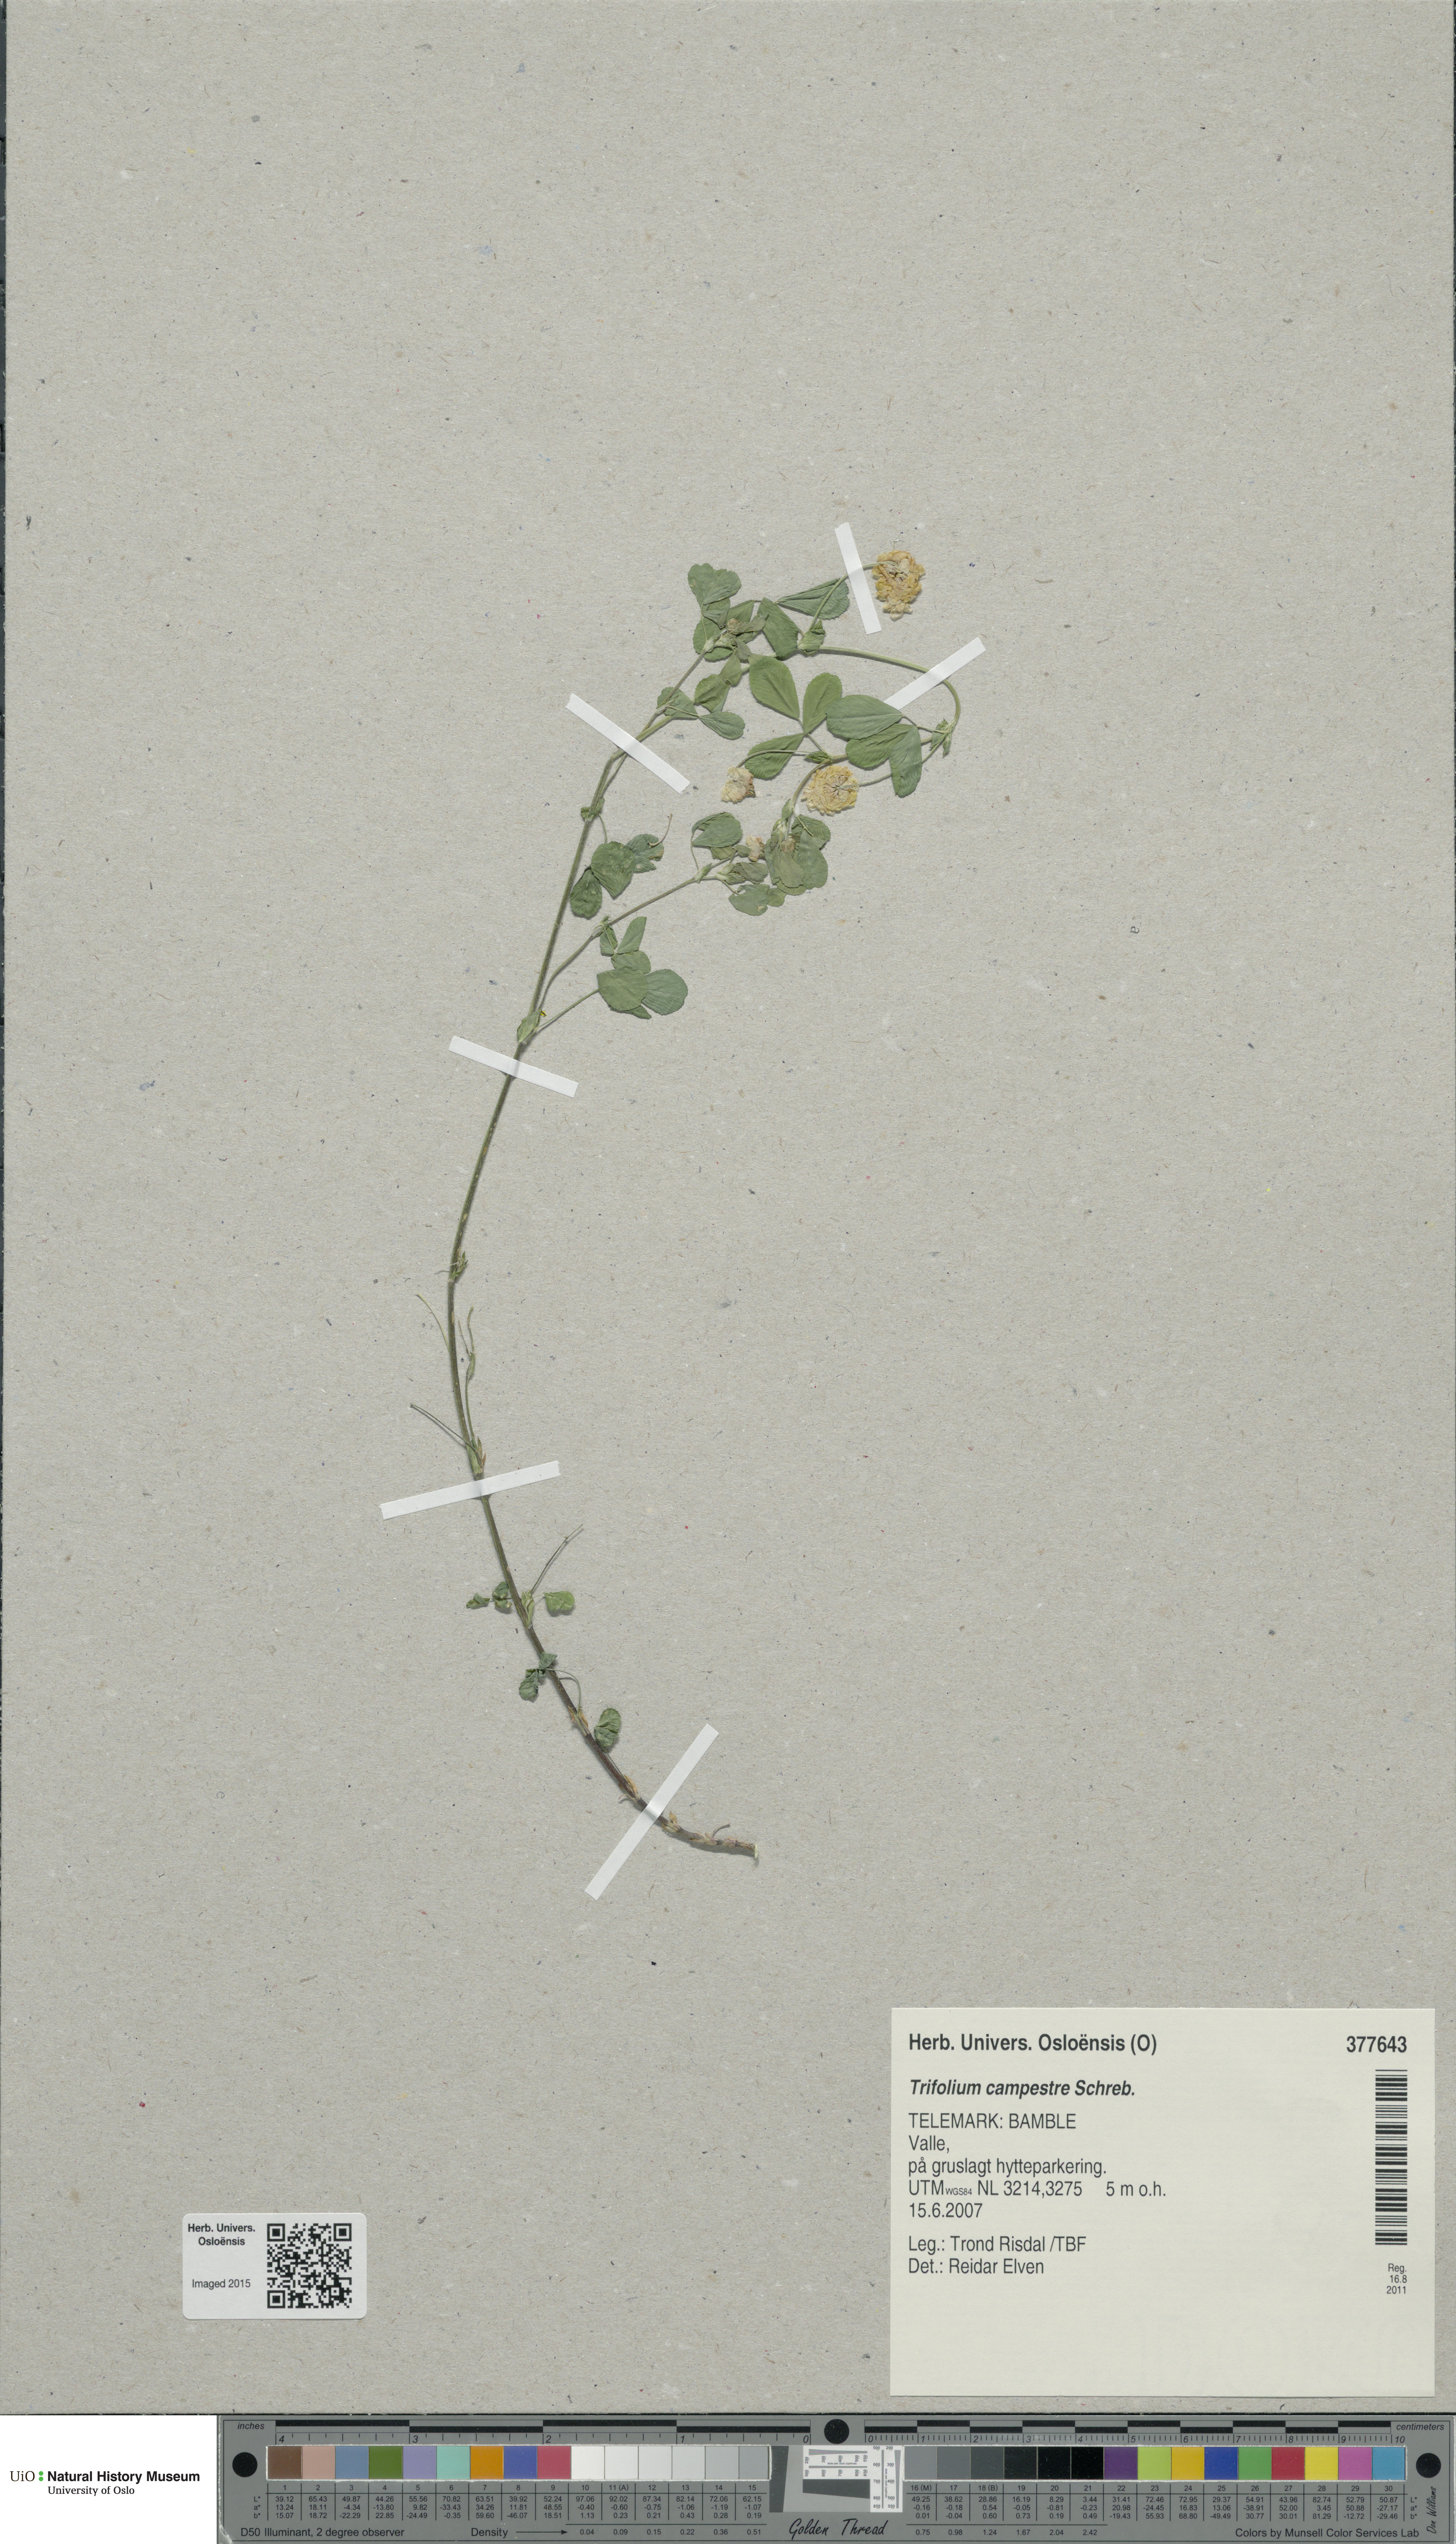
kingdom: Plantae
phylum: Tracheophyta
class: Magnoliopsida
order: Fabales
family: Fabaceae
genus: Trifolium
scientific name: Trifolium campestre
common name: Field clover
